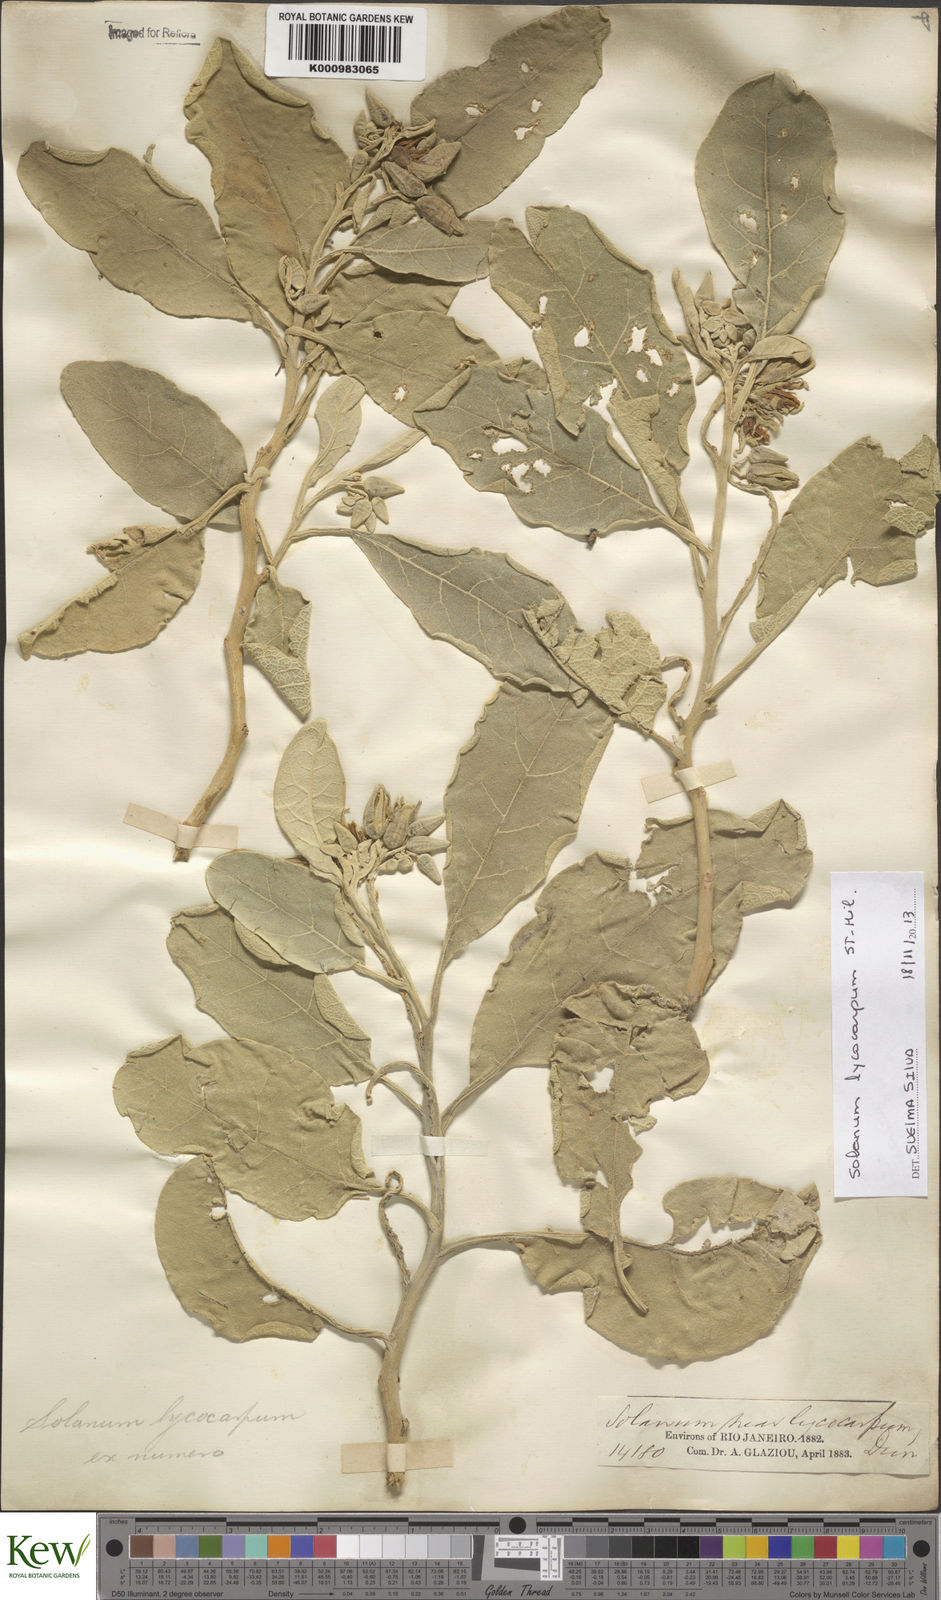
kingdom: Plantae
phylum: Tracheophyta
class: Magnoliopsida
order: Solanales
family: Solanaceae
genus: Solanum
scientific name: Solanum lycocarpum
